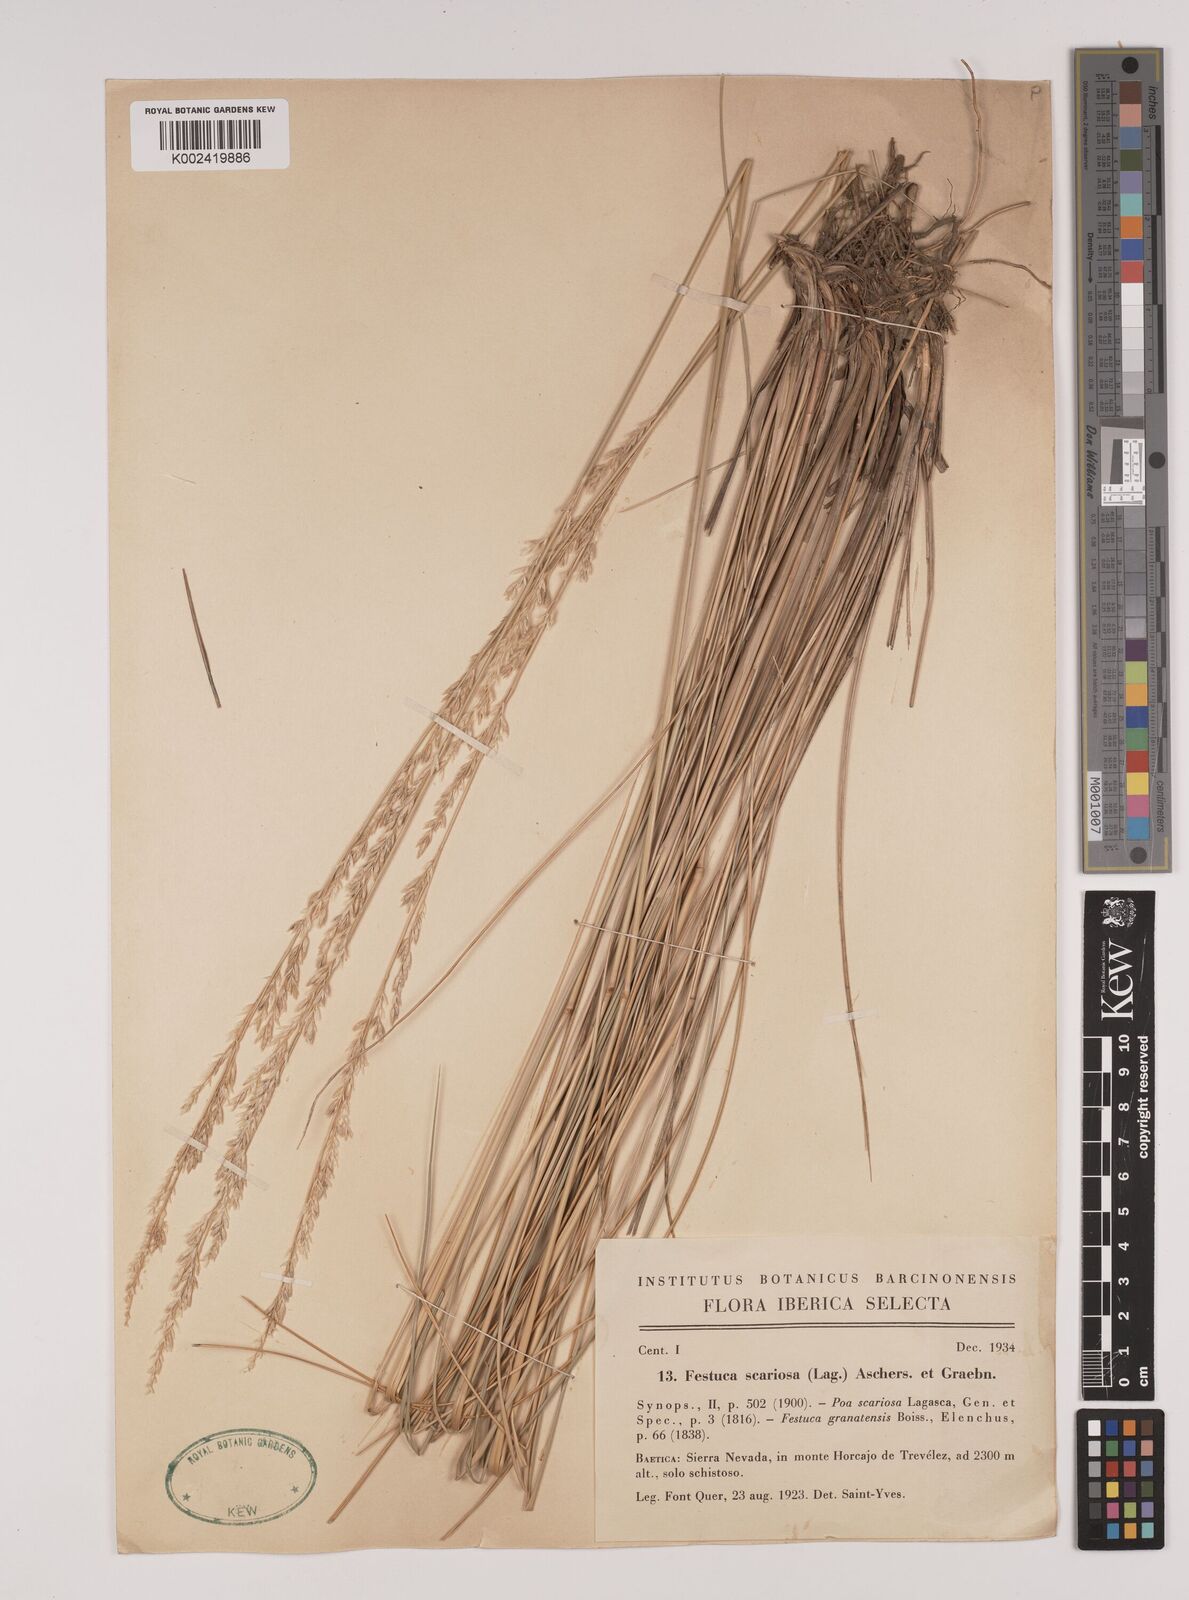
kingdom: Plantae
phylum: Tracheophyta
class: Liliopsida
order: Poales
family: Poaceae
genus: Festuca
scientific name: Festuca scariosa
